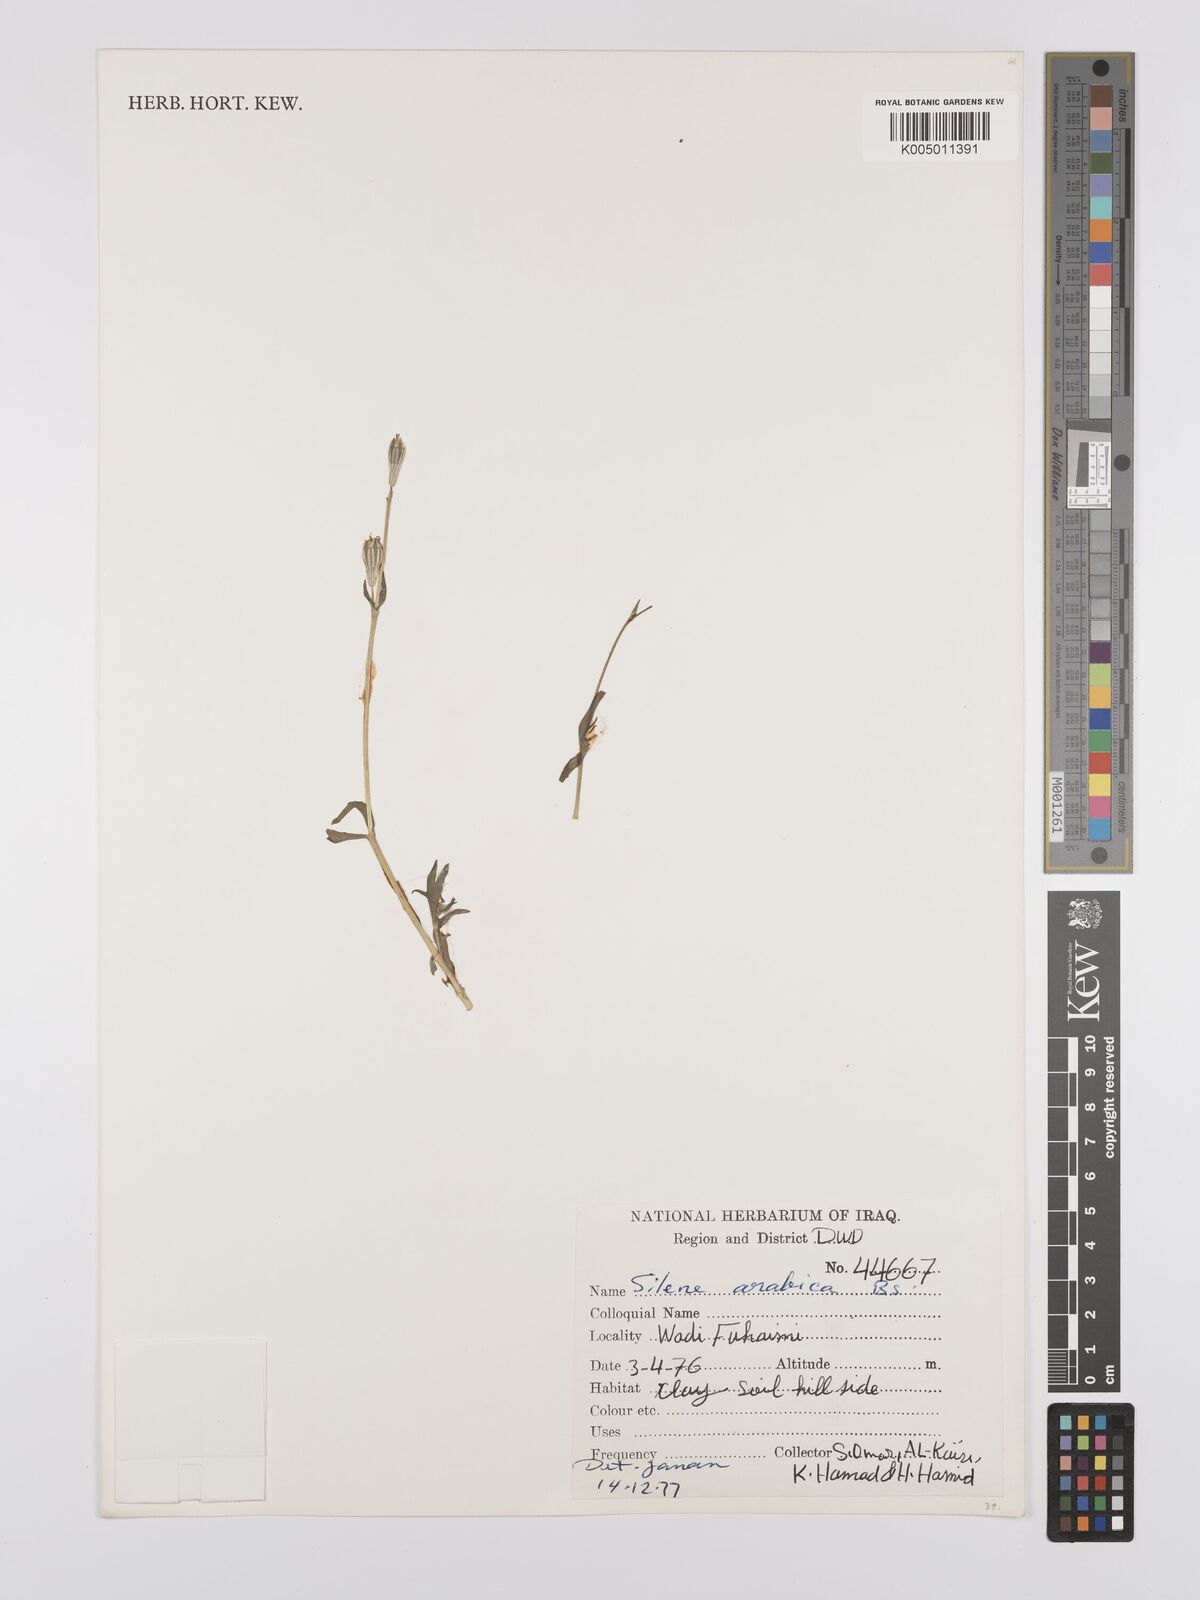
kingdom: Plantae
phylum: Tracheophyta
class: Magnoliopsida
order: Caryophyllales
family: Caryophyllaceae
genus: Silene
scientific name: Silene arabica
